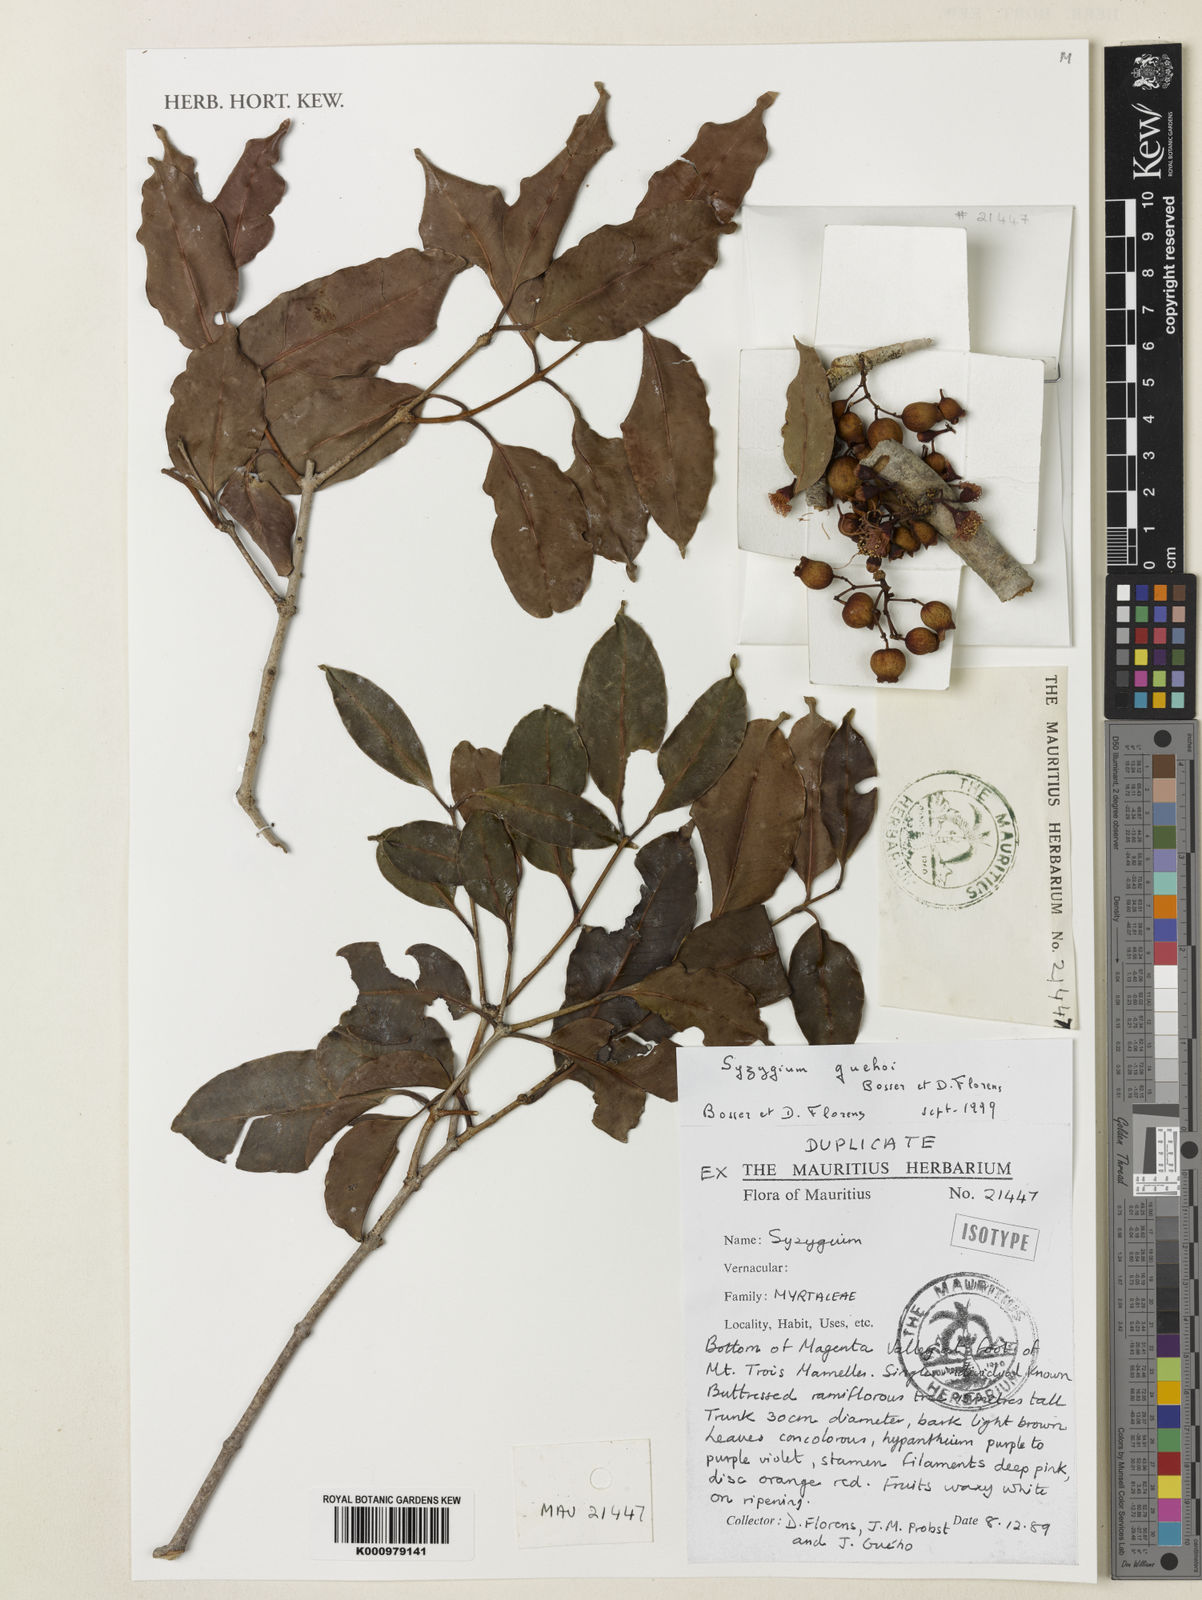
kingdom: Plantae
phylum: Tracheophyta
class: Magnoliopsida
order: Myrtales
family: Myrtaceae
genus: Syzygium
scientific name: Syzygium guehoi
